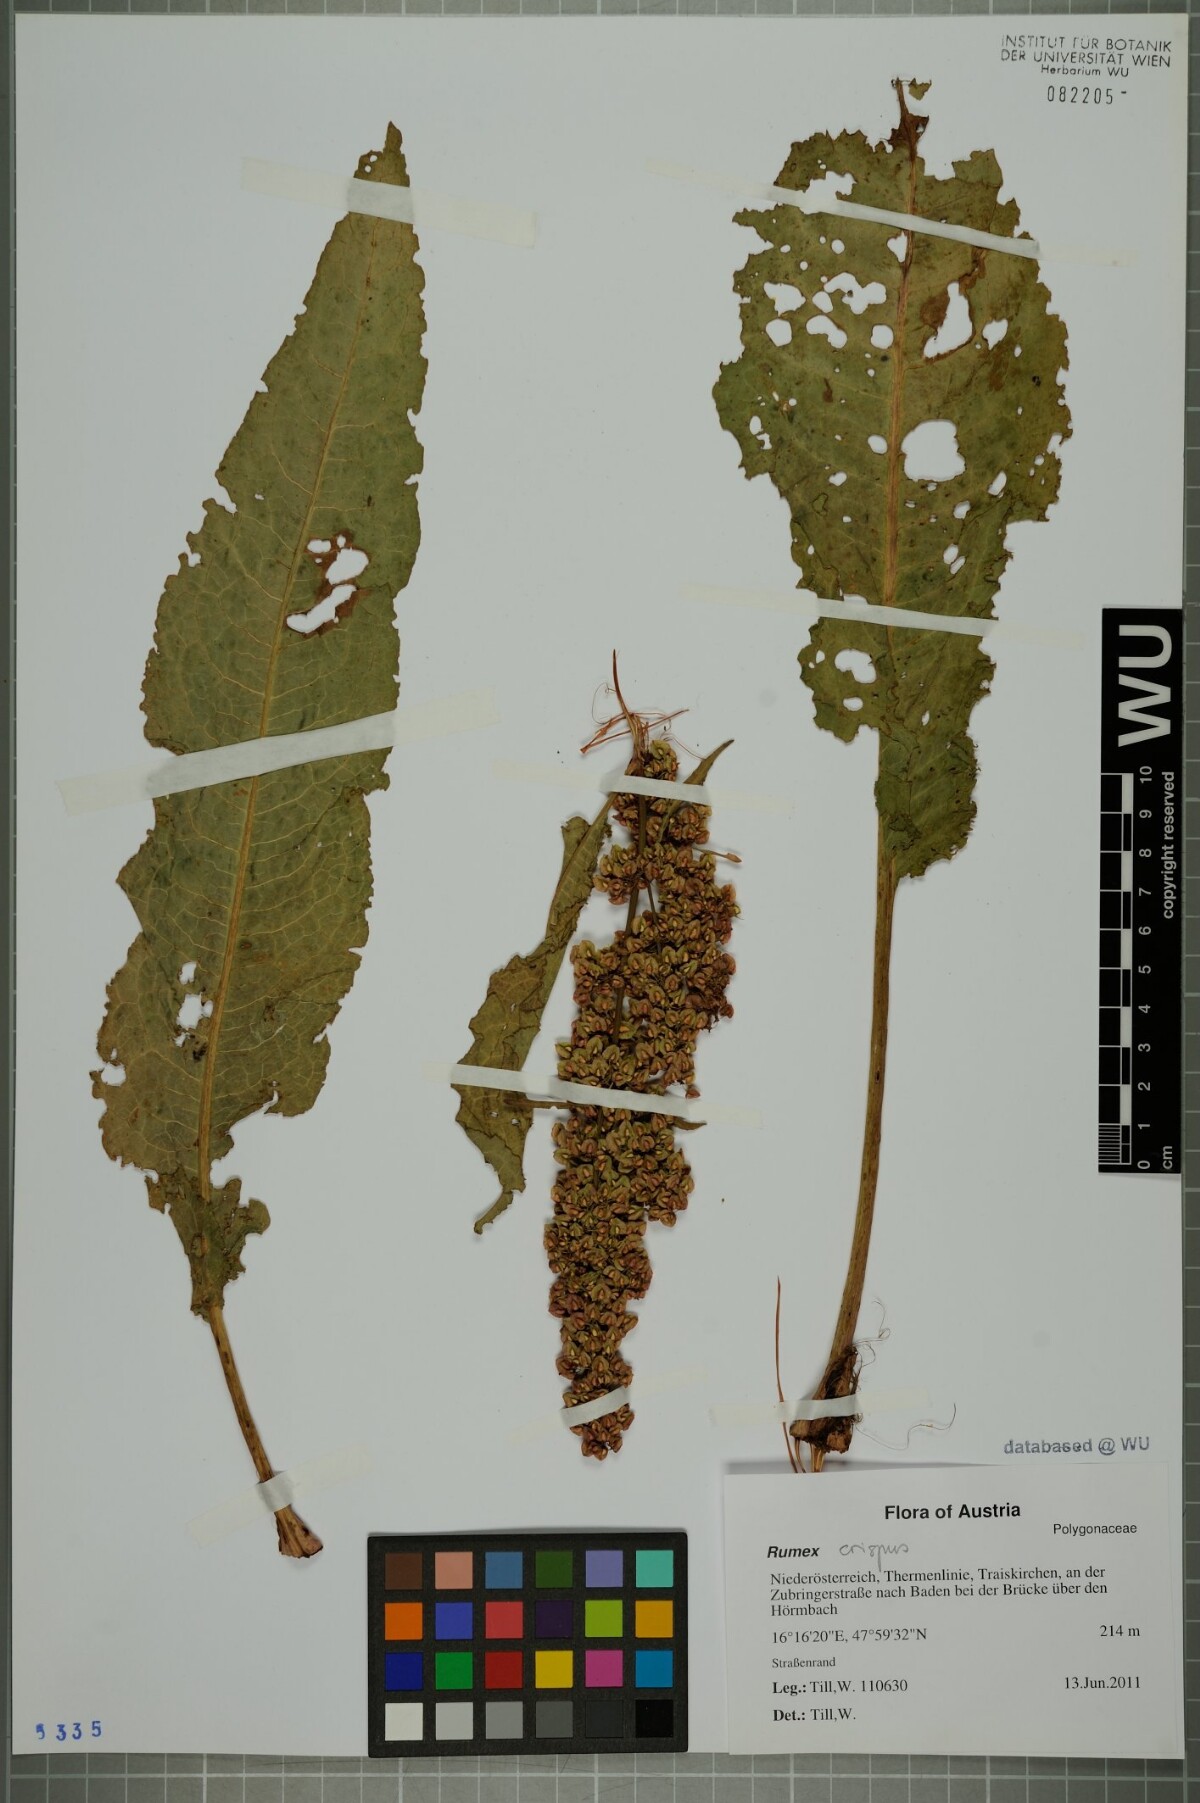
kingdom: Plantae
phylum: Tracheophyta
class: Magnoliopsida
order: Caryophyllales
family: Polygonaceae
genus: Rumex
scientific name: Rumex crispus
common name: Curled dock
